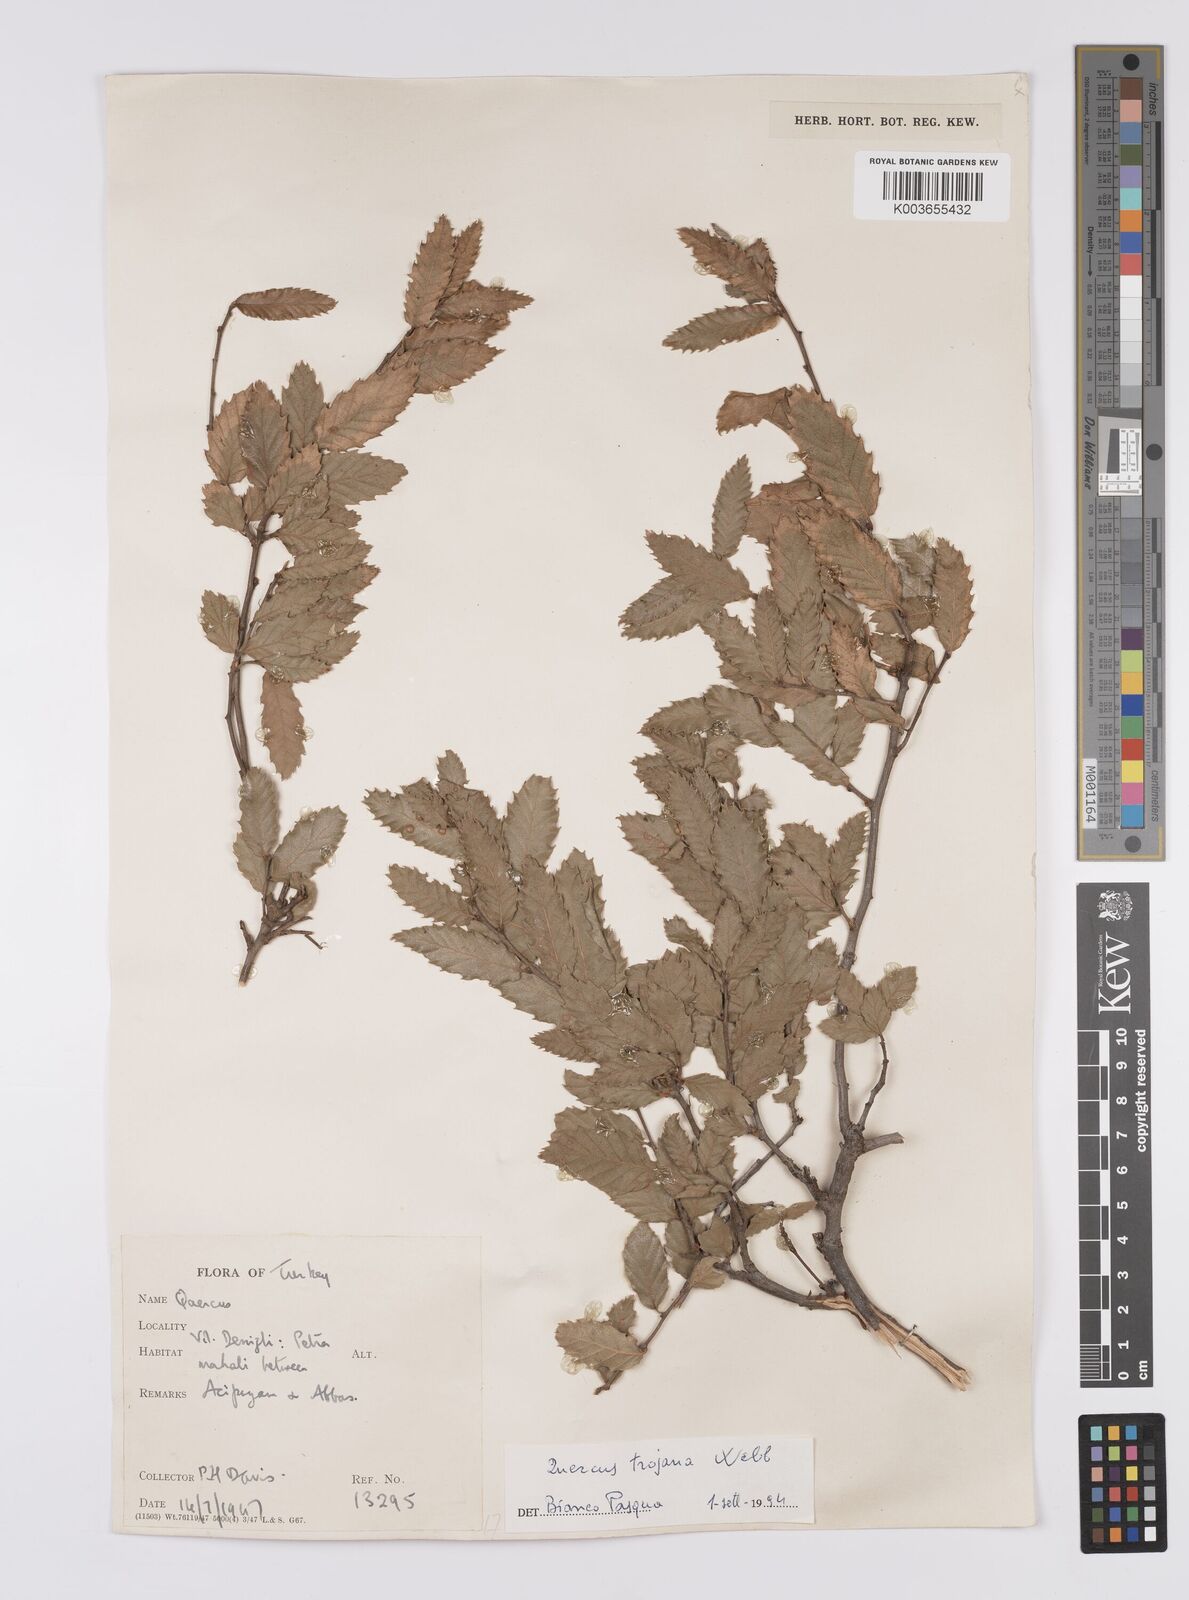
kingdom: Plantae
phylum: Tracheophyta
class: Magnoliopsida
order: Fagales
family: Fagaceae
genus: Quercus
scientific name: Quercus trojana
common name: Macedonian oak
